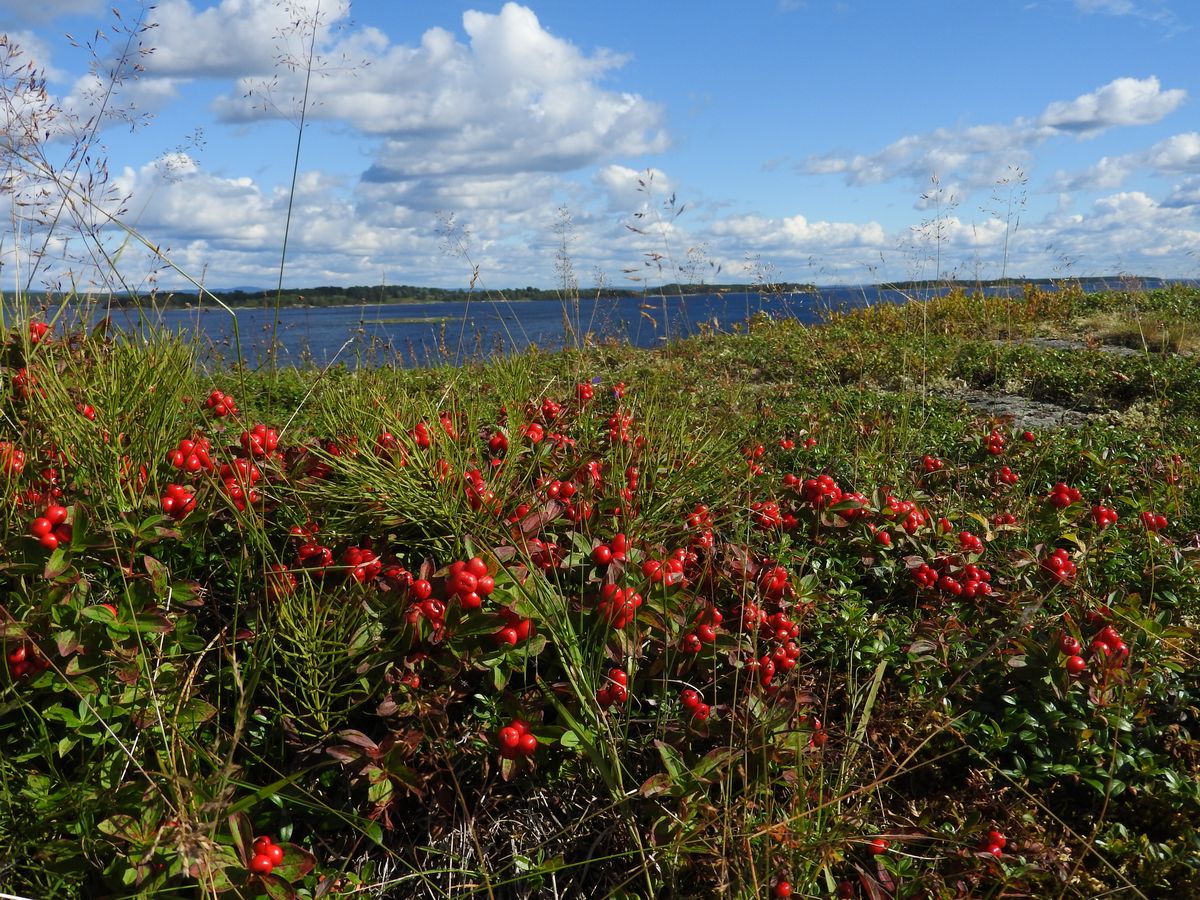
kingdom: Plantae
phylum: Tracheophyta
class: Magnoliopsida
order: Cornales
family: Cornaceae
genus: Cornus
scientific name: Cornus suecica
